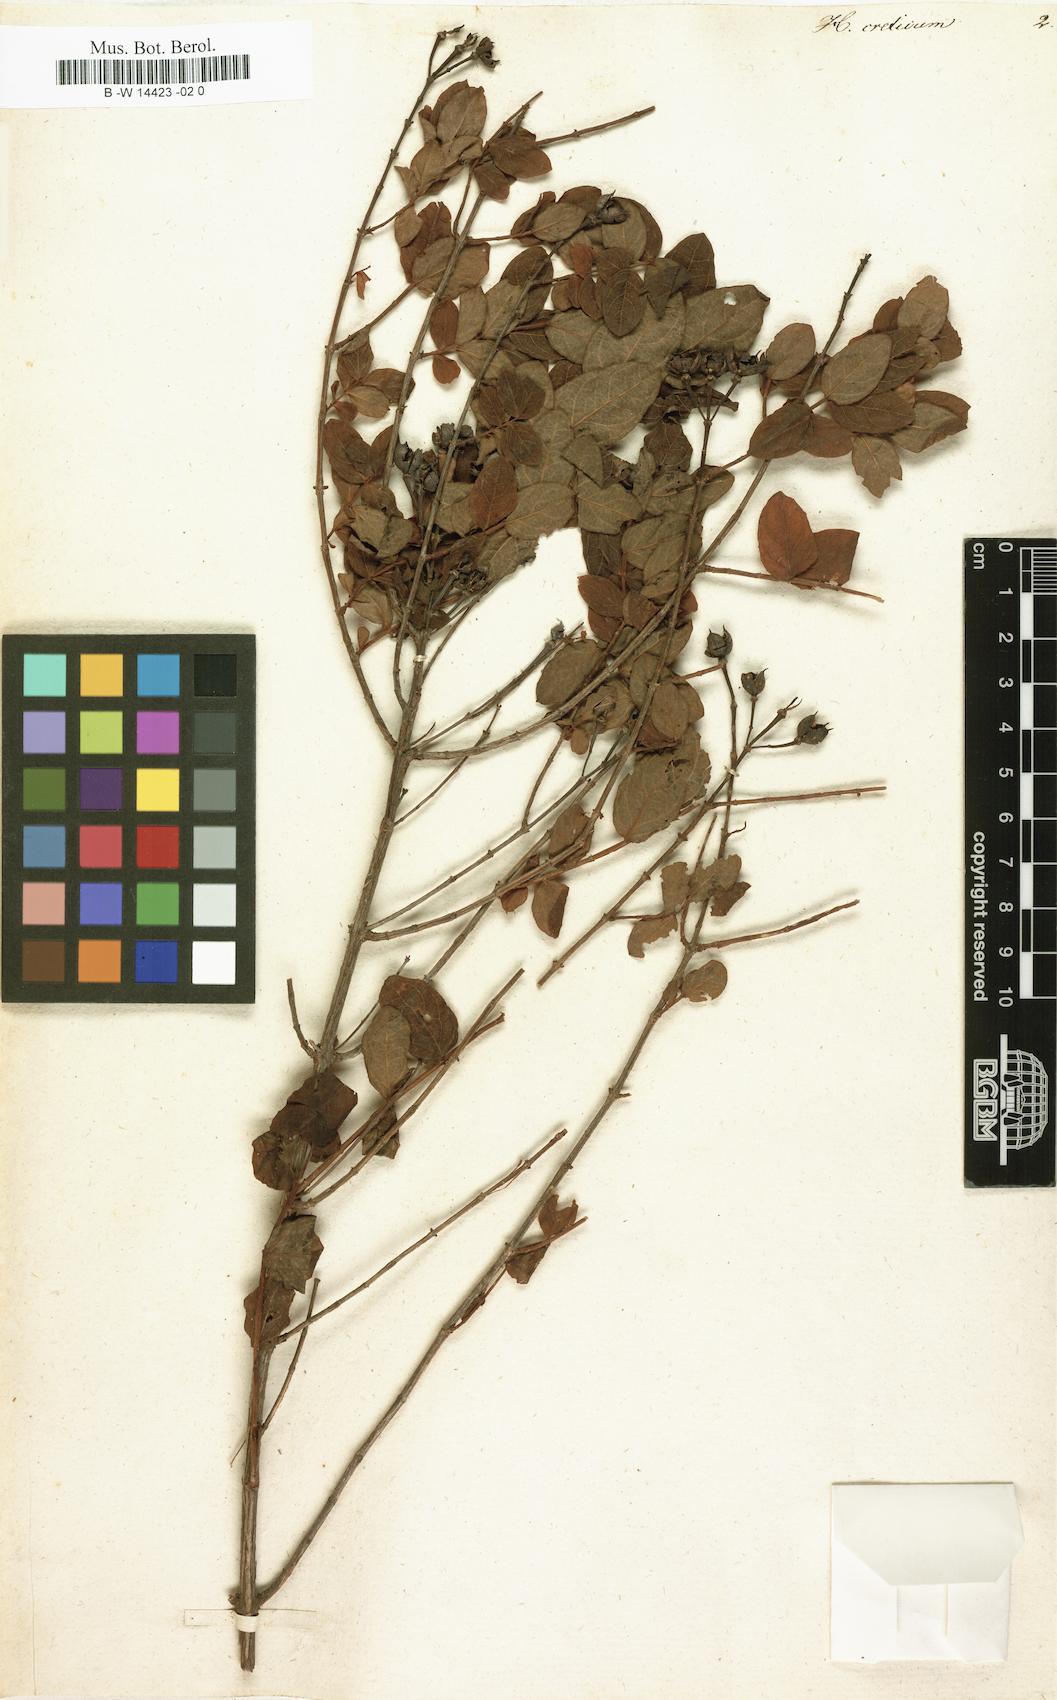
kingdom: Plantae
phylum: Tracheophyta
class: Magnoliopsida
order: Malpighiales
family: Hypericaceae
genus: Hypericum
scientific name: Hypericum aegypticum
